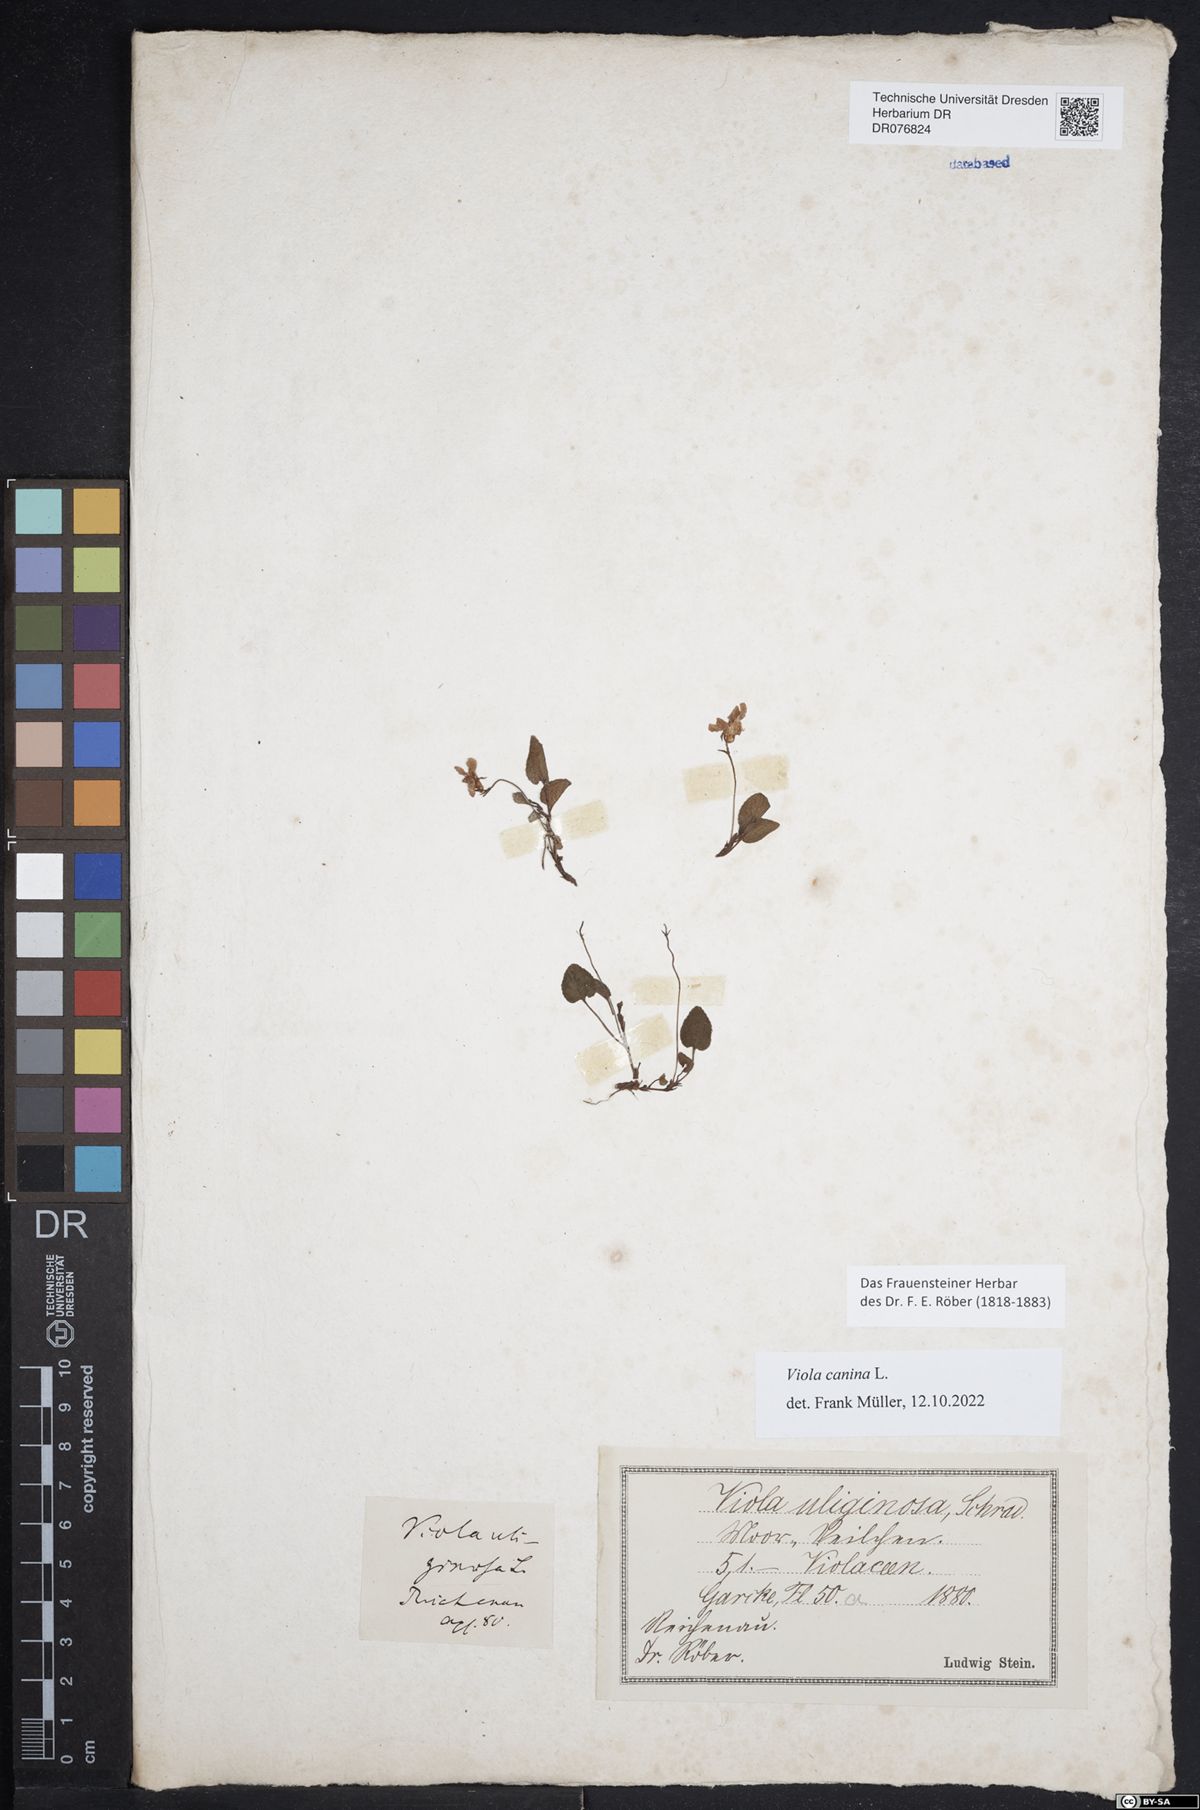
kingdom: Plantae
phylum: Tracheophyta
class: Magnoliopsida
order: Malpighiales
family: Violaceae
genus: Viola
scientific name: Viola canina
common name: Heath dog-violet
